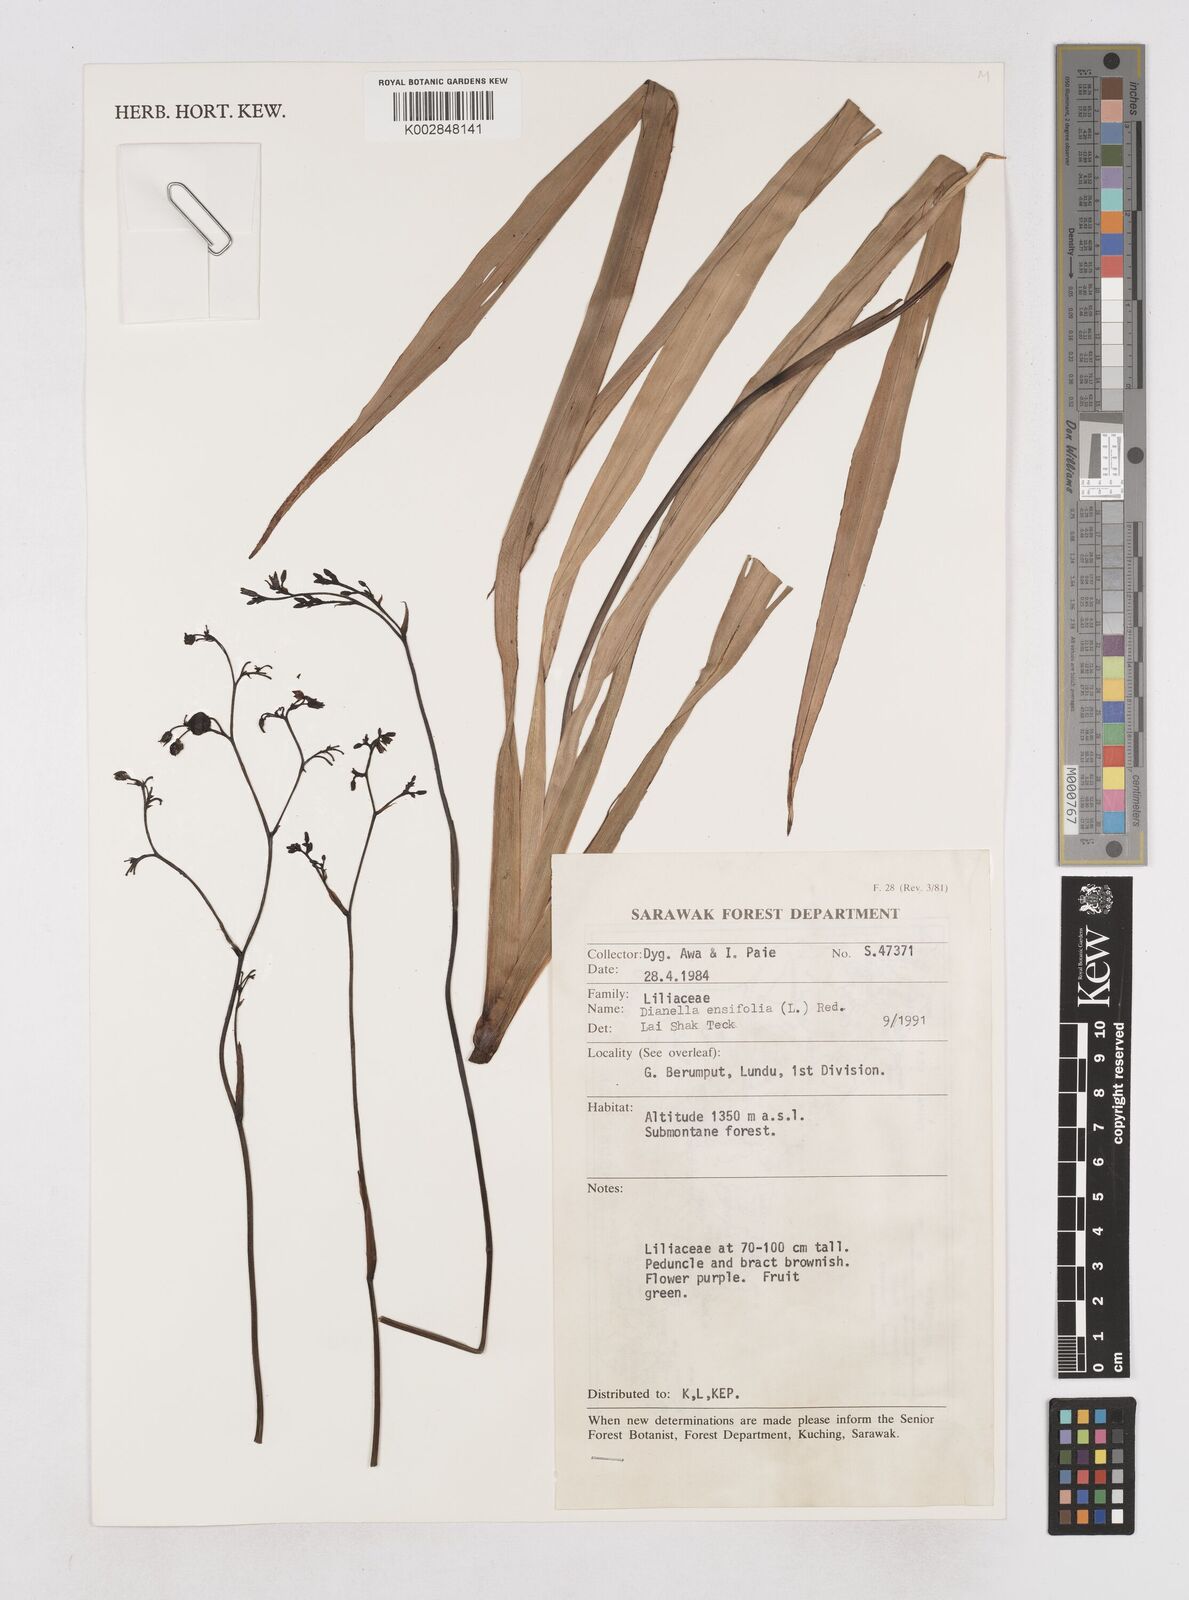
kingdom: Plantae
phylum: Tracheophyta
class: Liliopsida
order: Asparagales
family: Asphodelaceae
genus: Dianella
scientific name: Dianella ensifolia
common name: New zealand lilyplant
